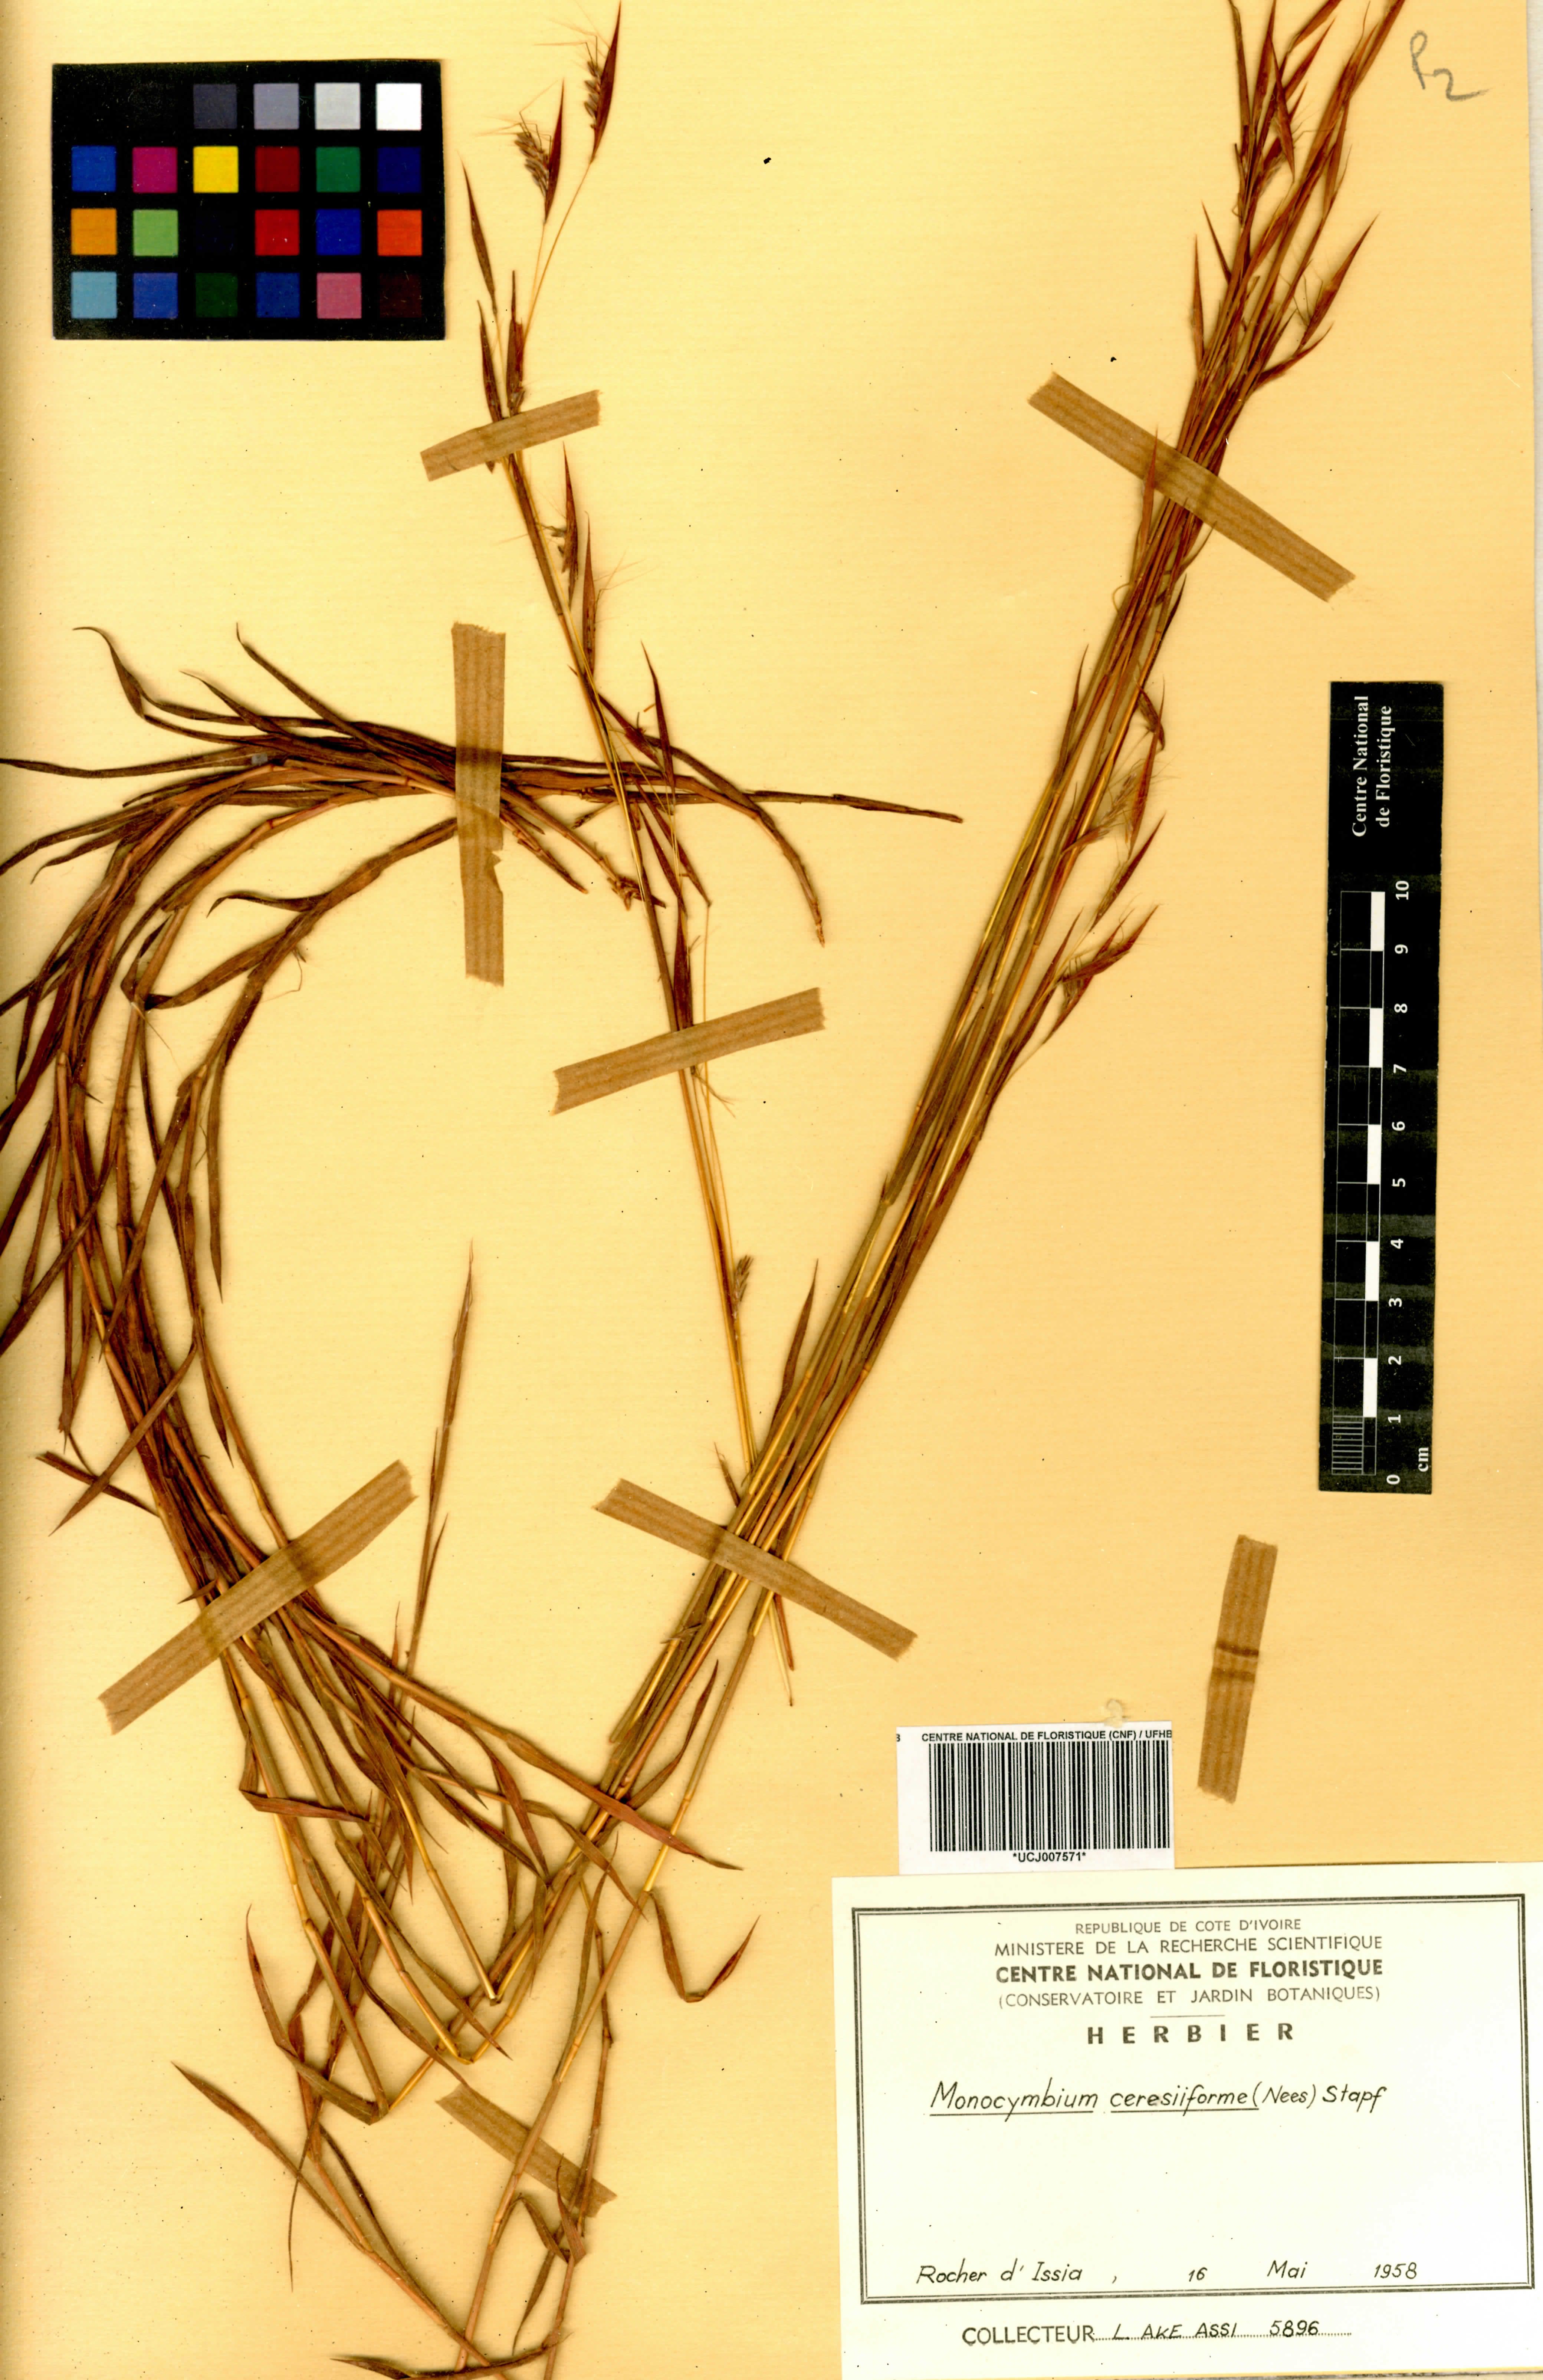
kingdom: Plantae
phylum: Tracheophyta
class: Liliopsida
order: Poales
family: Poaceae
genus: Monocymbium
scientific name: Monocymbium ceresiiforme
